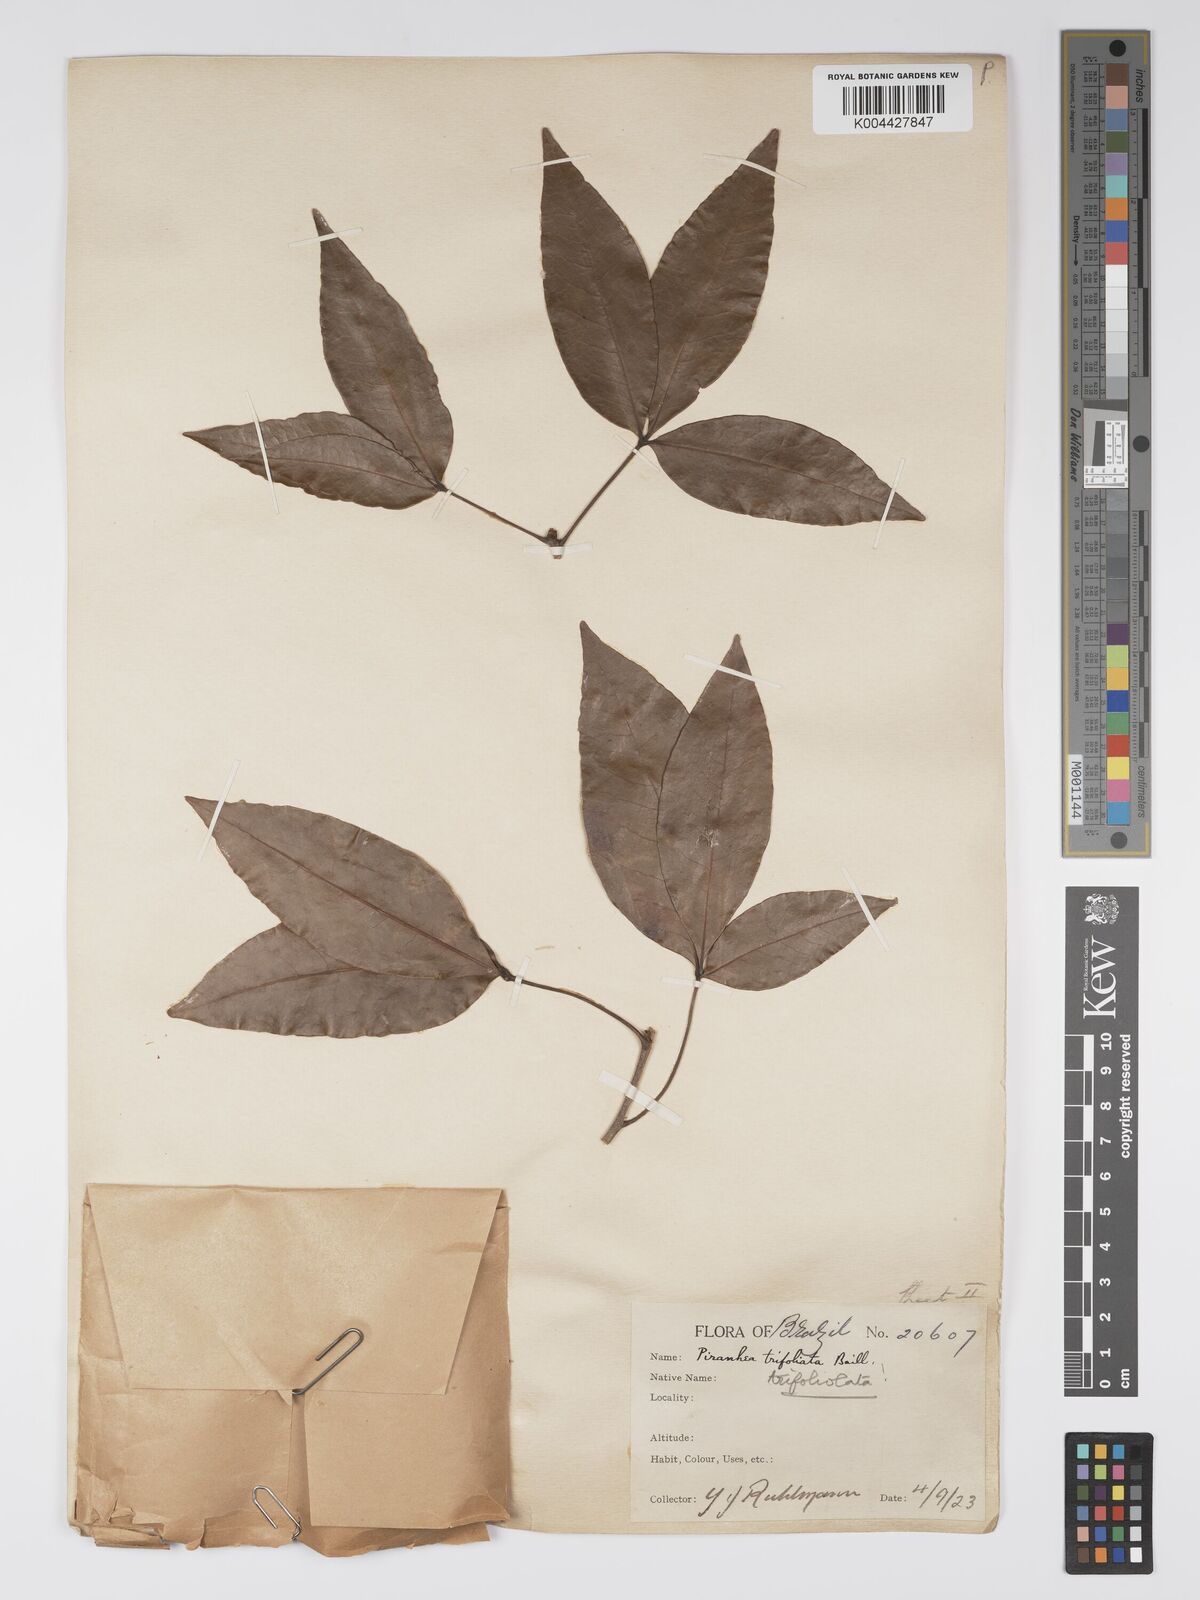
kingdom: Plantae
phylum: Tracheophyta
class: Magnoliopsida
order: Malpighiales
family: Picrodendraceae
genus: Piranhea
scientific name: Piranhea trifoliolata
